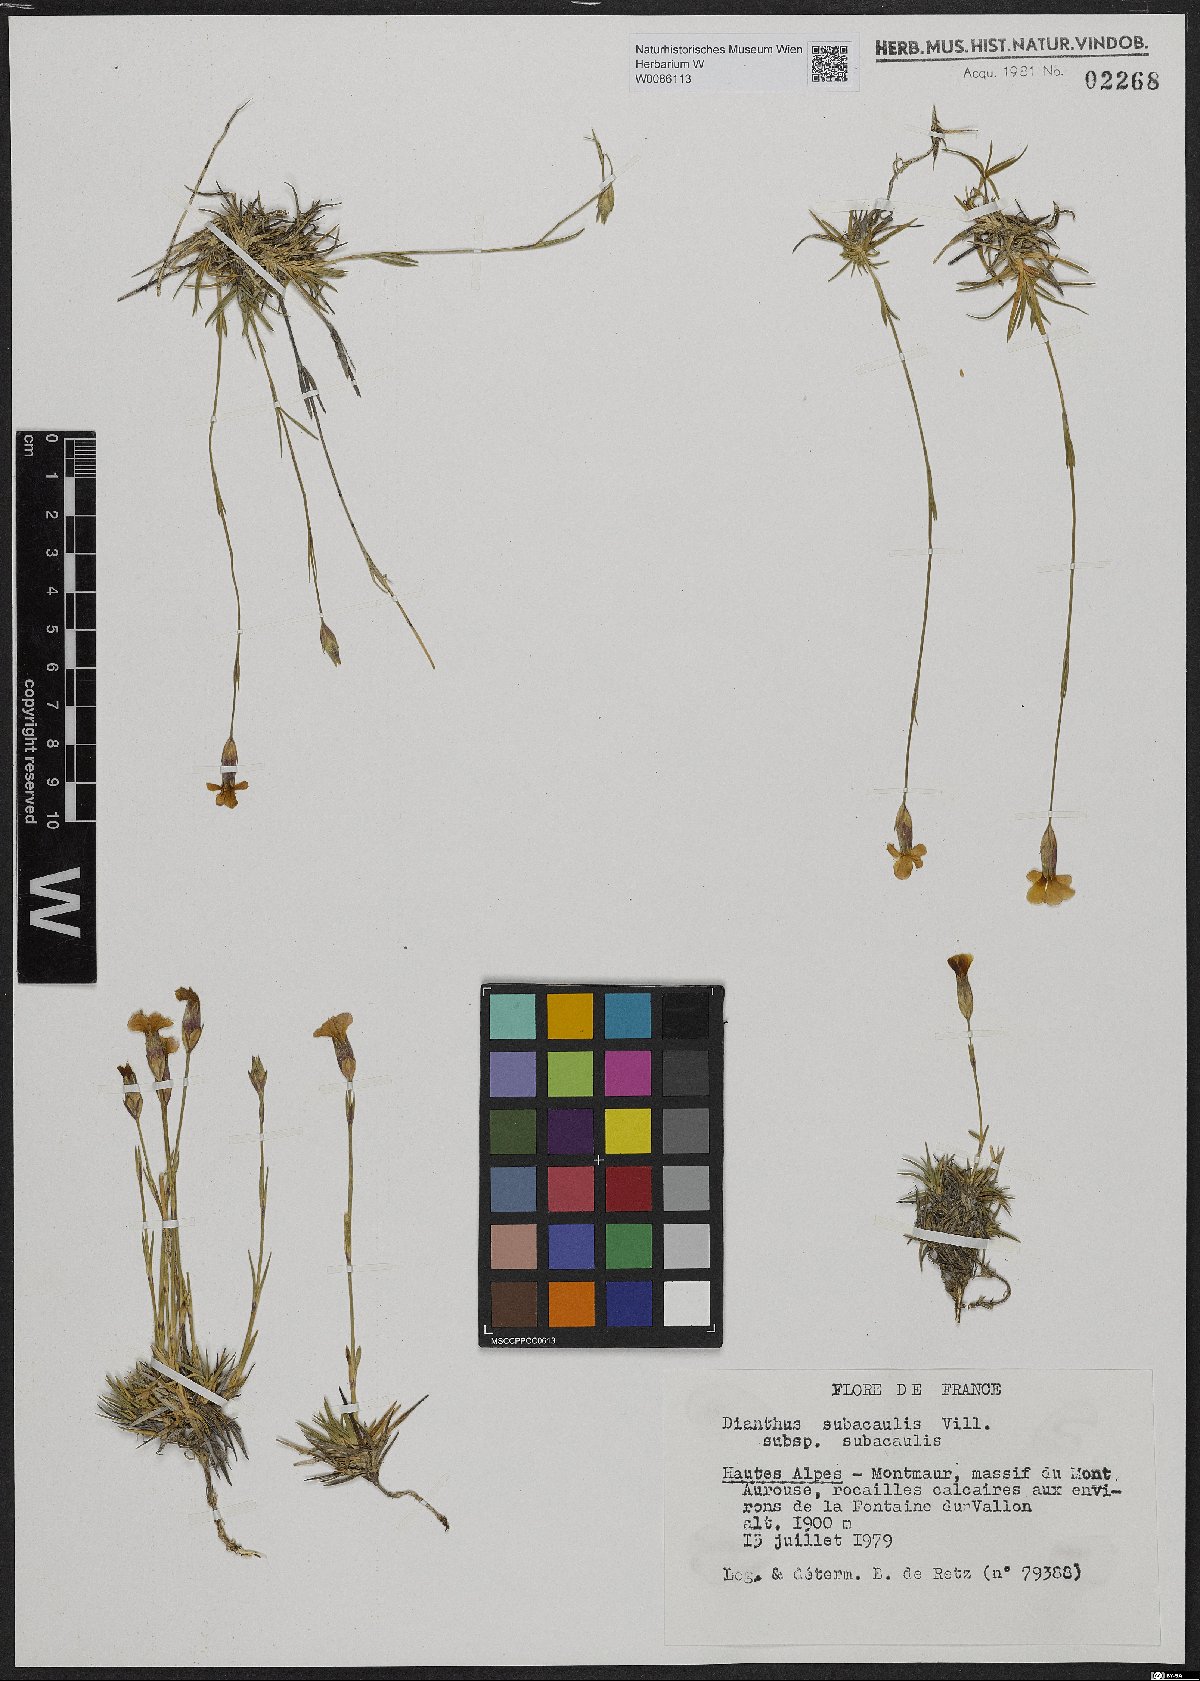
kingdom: Plantae
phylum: Tracheophyta
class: Magnoliopsida
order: Caryophyllales
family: Caryophyllaceae
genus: Dianthus
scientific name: Dianthus subacaulis
